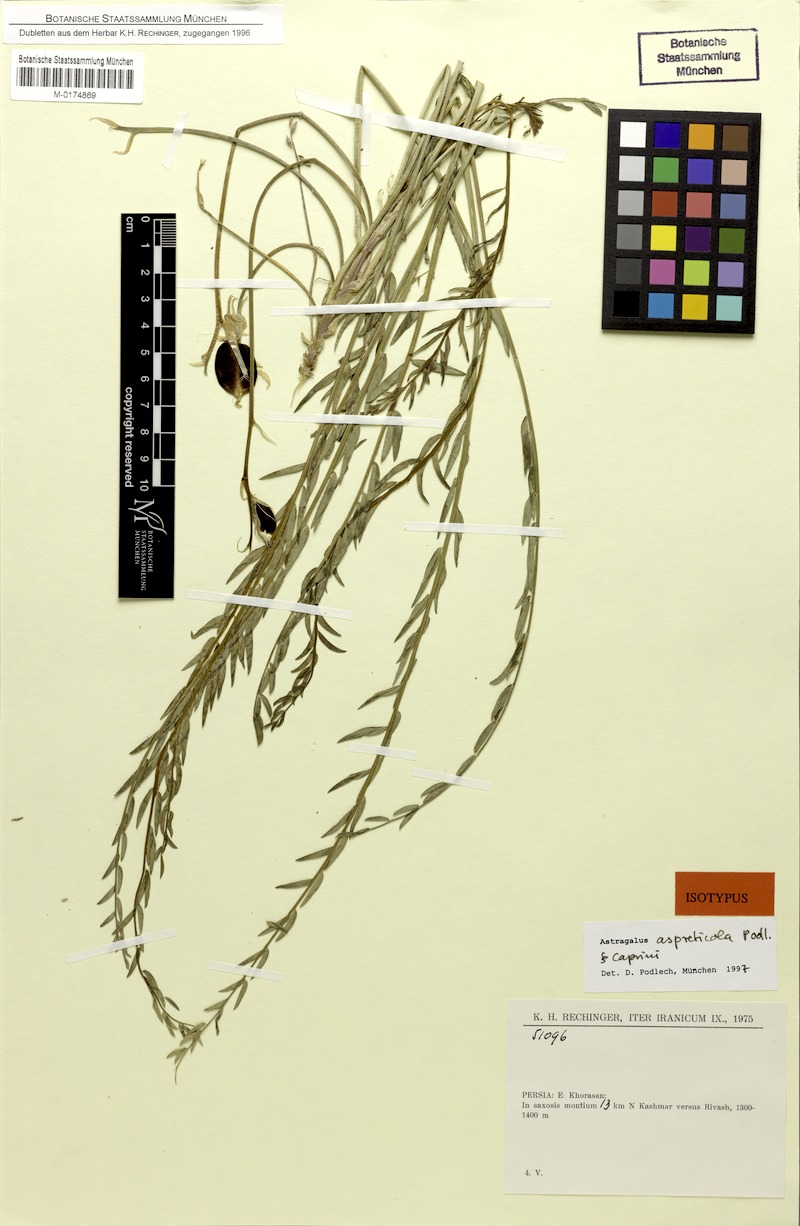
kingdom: Plantae
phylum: Tracheophyta
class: Magnoliopsida
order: Fabales
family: Fabaceae
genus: Astragalus
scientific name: Astragalus aspreticola
